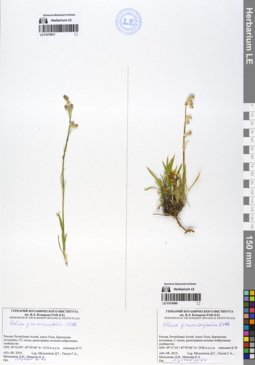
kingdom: Plantae
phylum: Tracheophyta
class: Magnoliopsida
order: Caryophyllales
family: Caryophyllaceae
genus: Silene
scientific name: Silene graminifolia
